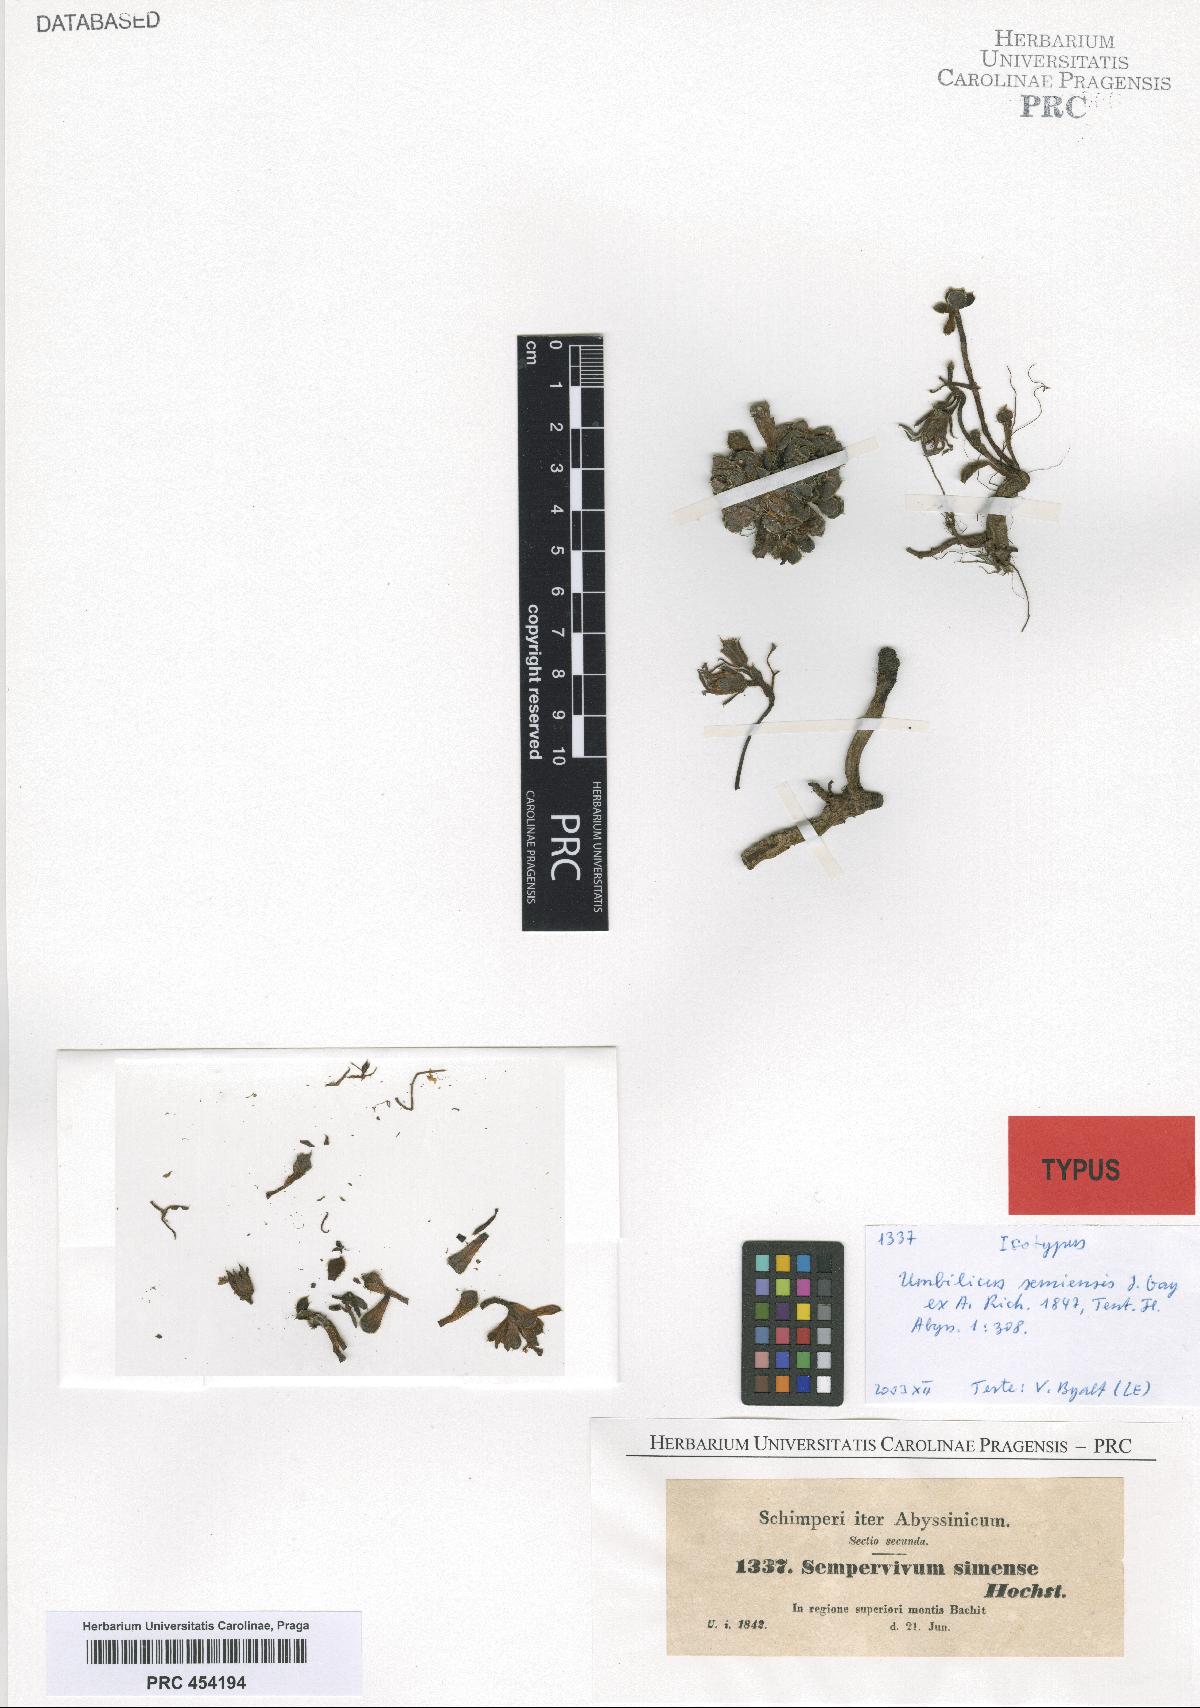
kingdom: Plantae
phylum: Tracheophyta
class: Magnoliopsida
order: Saxifragales
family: Crassulaceae
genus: Afrovivella
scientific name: Afrovivella semiensis
